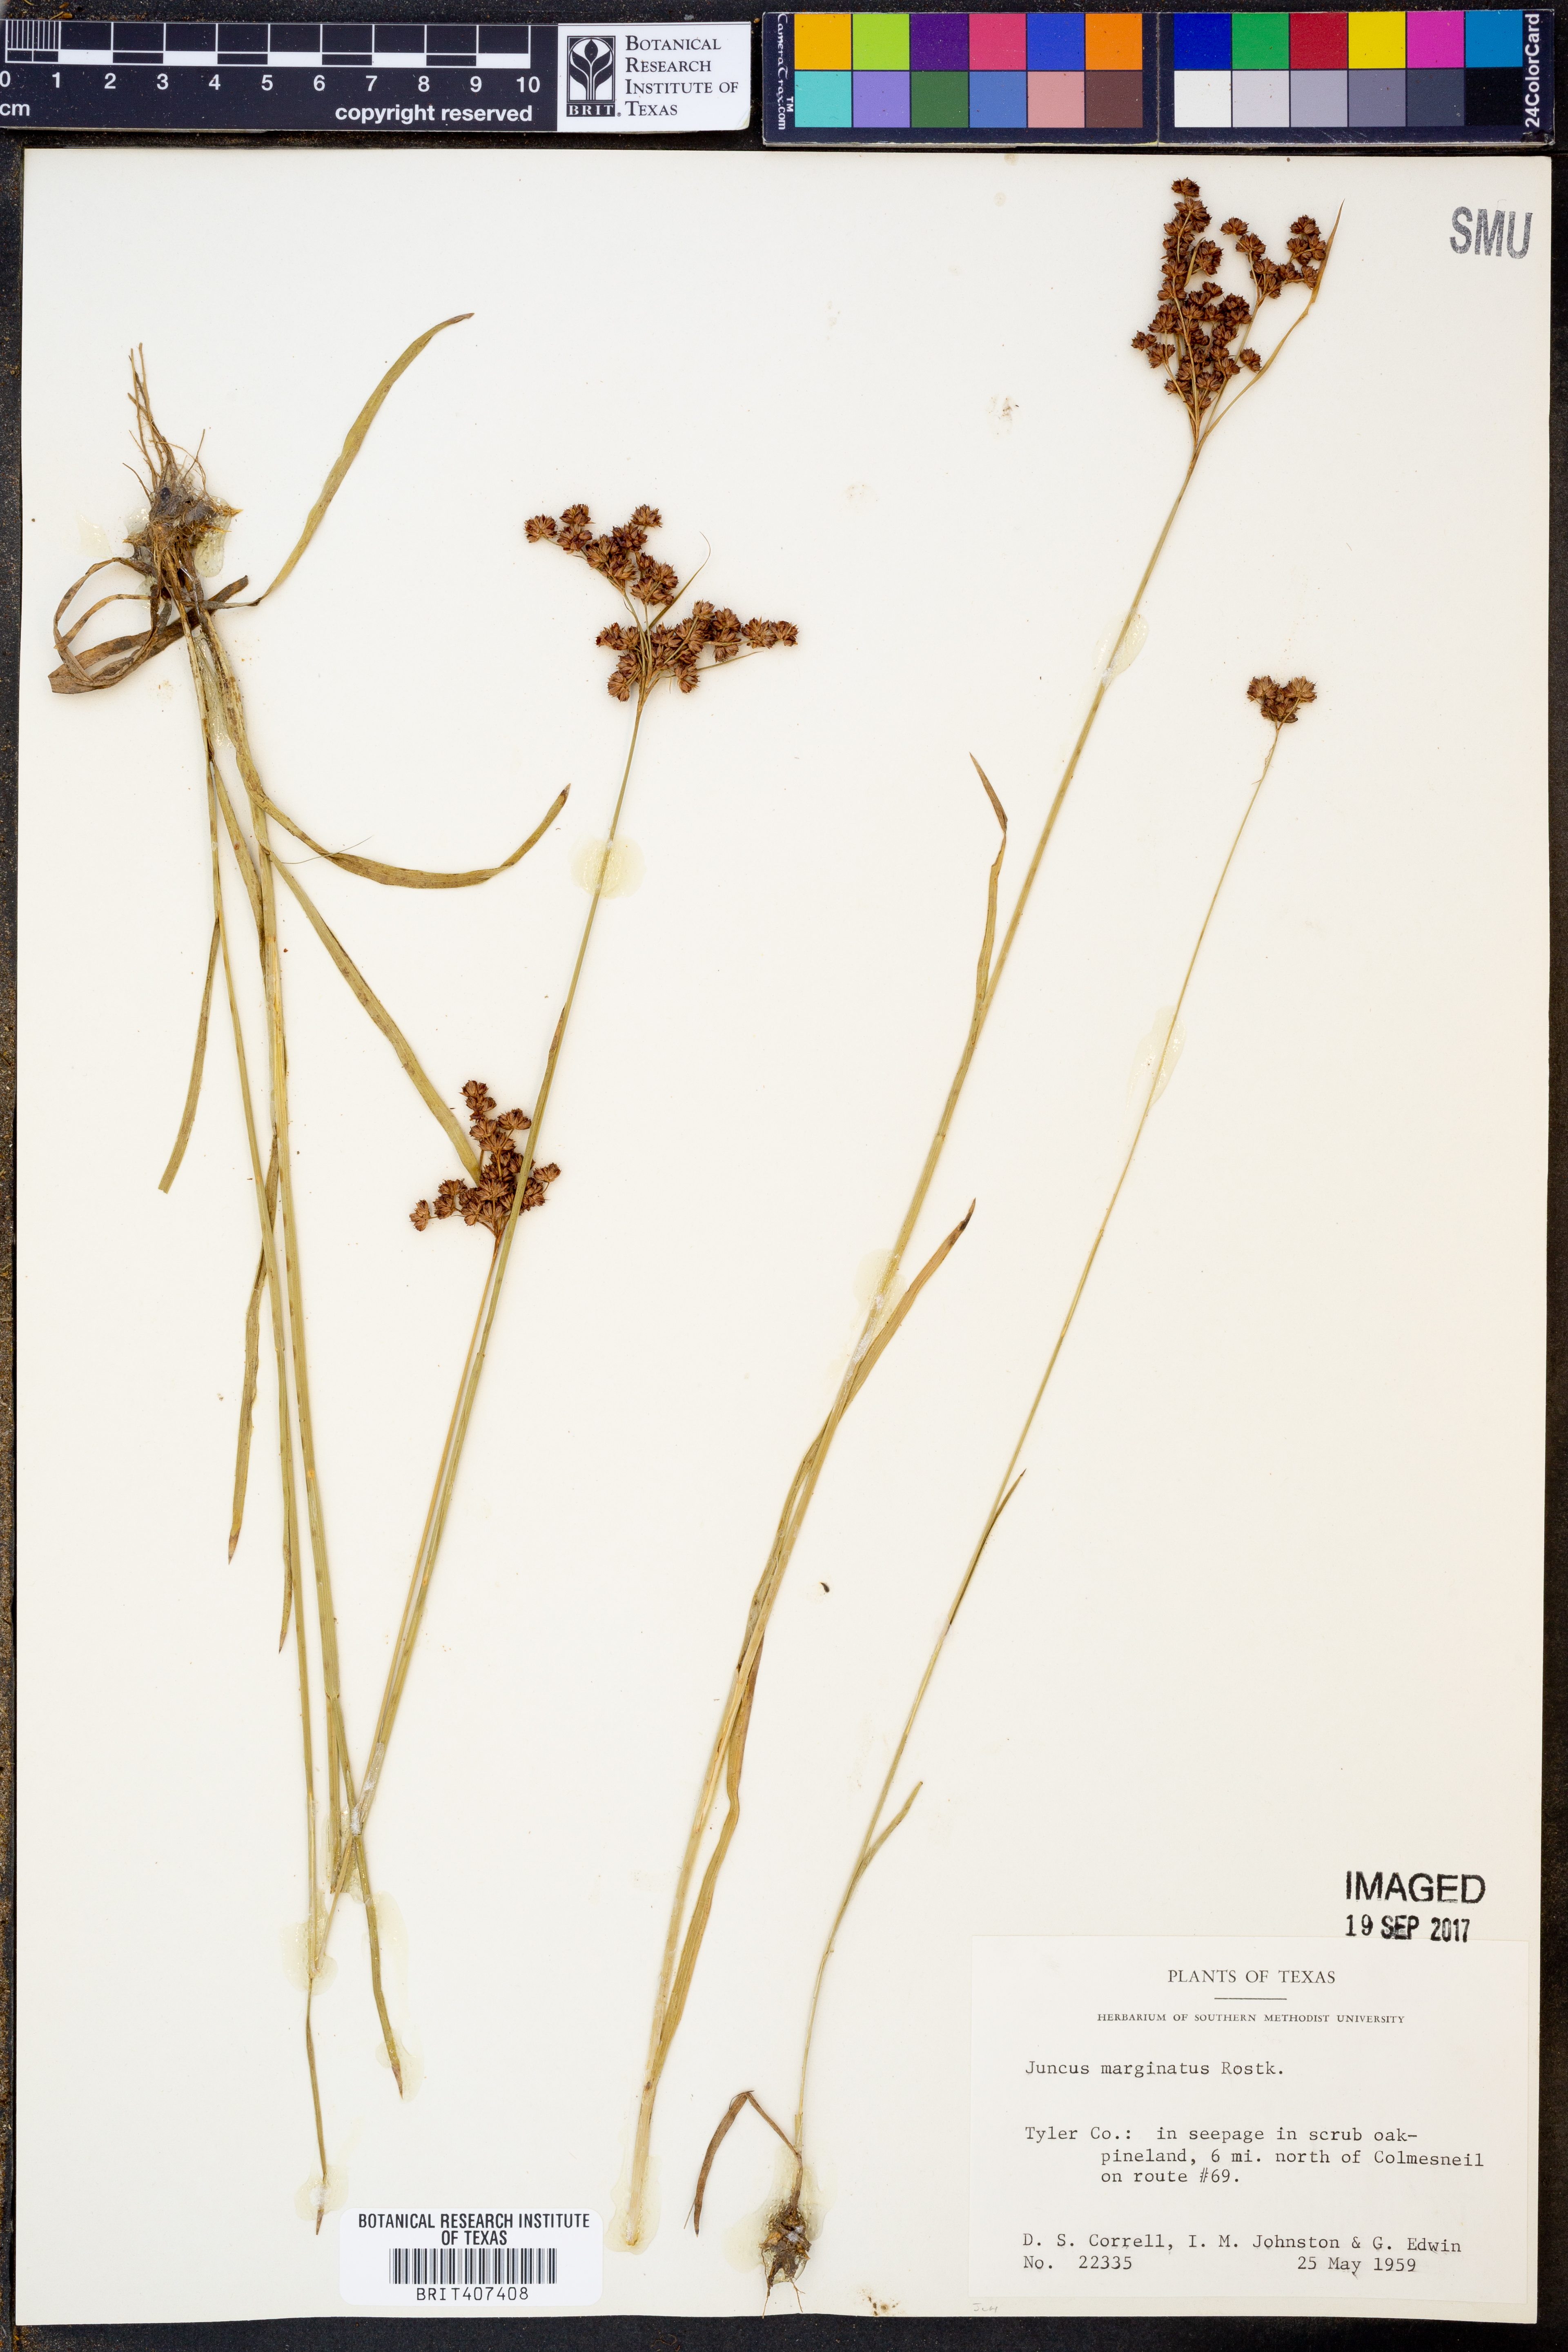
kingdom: Plantae
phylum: Tracheophyta
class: Liliopsida
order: Poales
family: Juncaceae
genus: Juncus
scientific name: Juncus marginatus
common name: Grass-leaf rush
